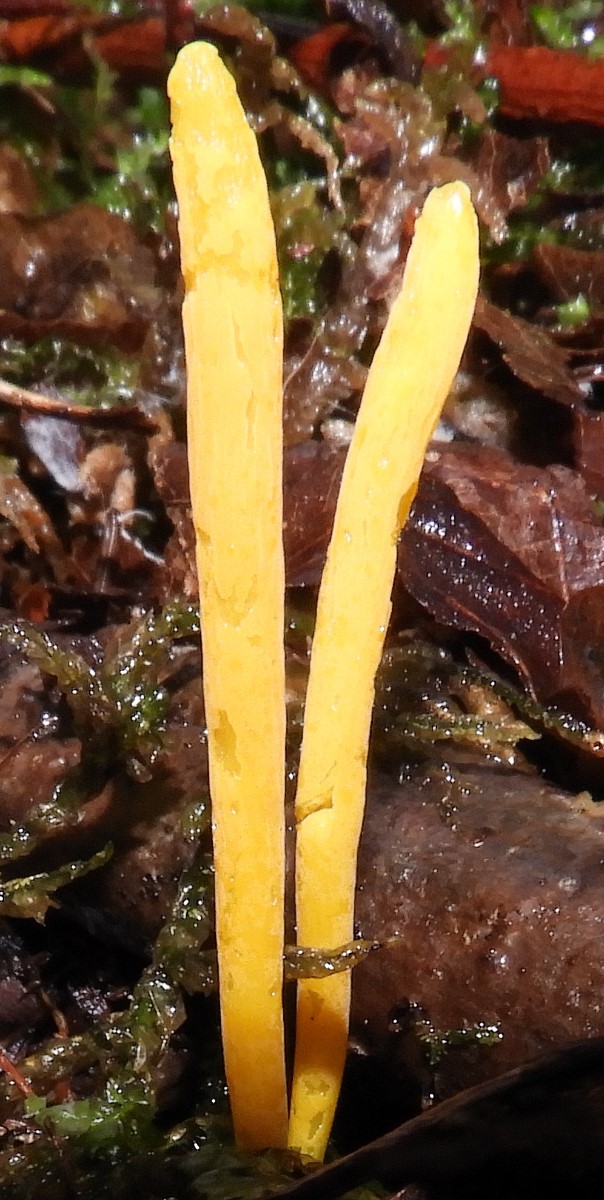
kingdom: Fungi
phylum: Basidiomycota
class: Agaricomycetes
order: Agaricales
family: Clavariaceae
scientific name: Clavariaceae
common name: køllesvampfamilien
